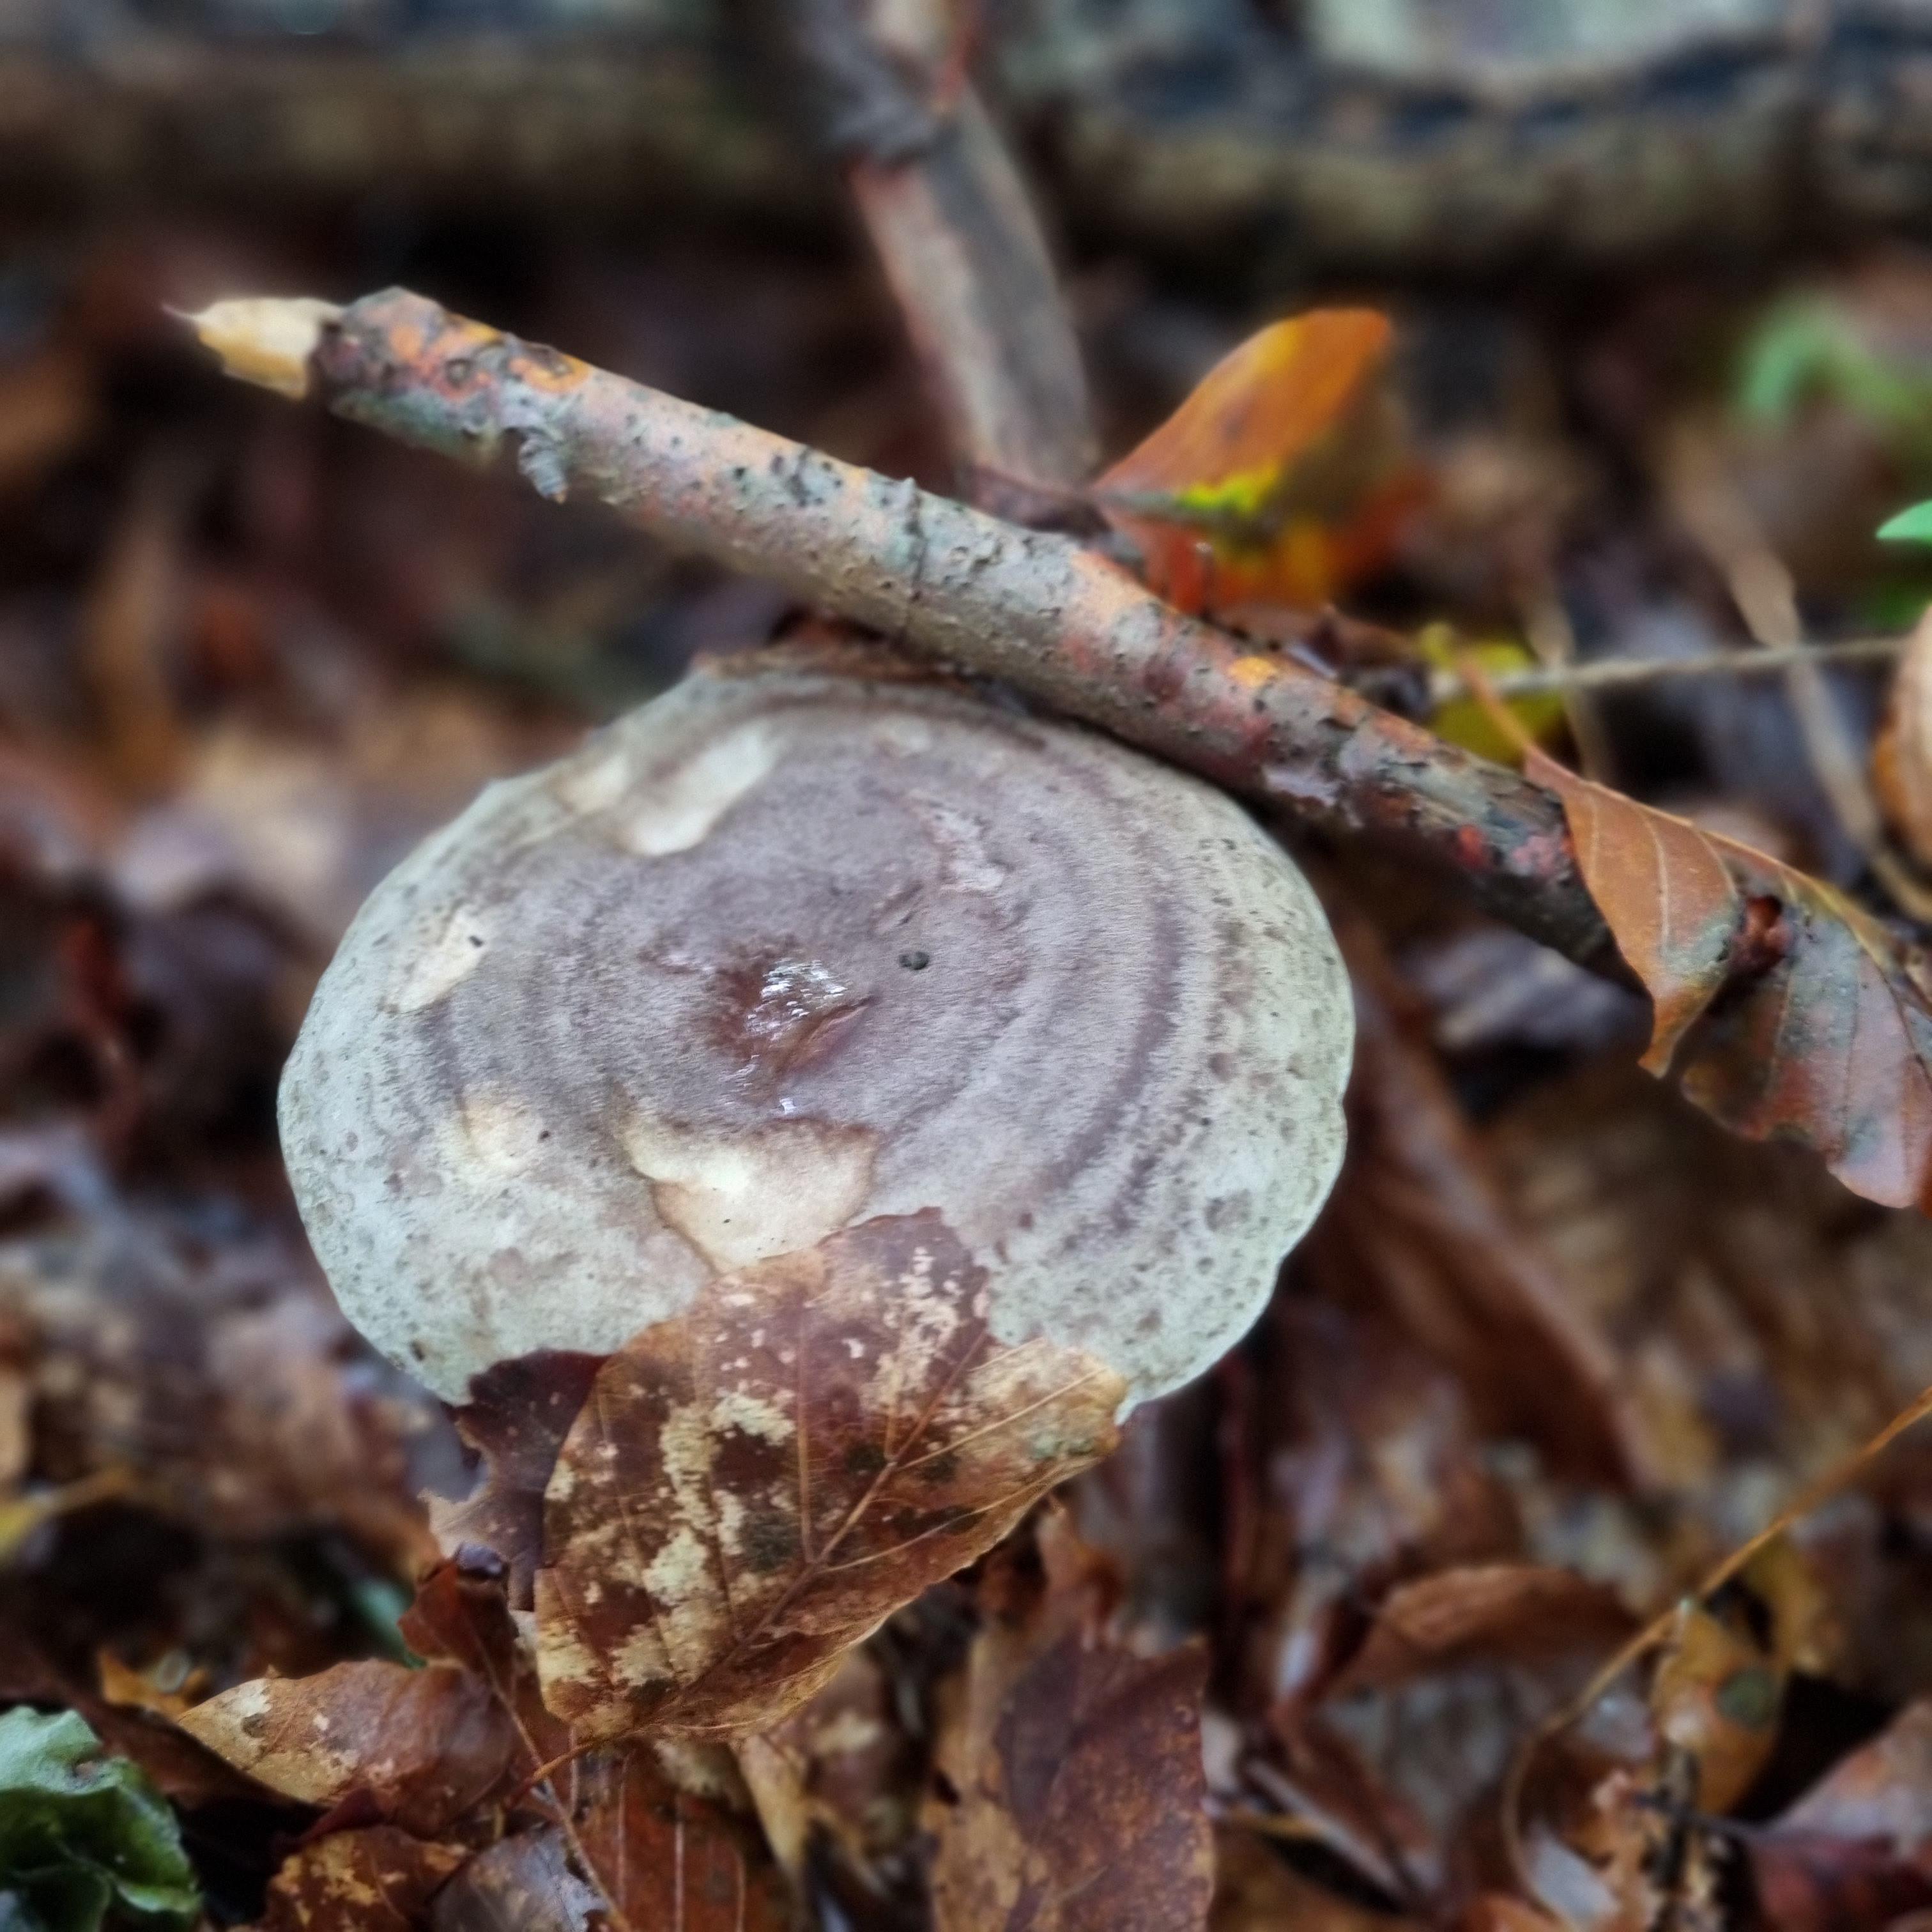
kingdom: Fungi
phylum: Basidiomycota
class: Agaricomycetes
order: Russulales
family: Russulaceae
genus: Lactarius
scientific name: Lactarius blennius
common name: dråbeplettet mælkehat
